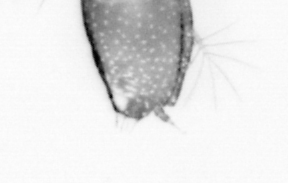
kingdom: Animalia
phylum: Arthropoda
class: Copepoda
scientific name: Copepoda
